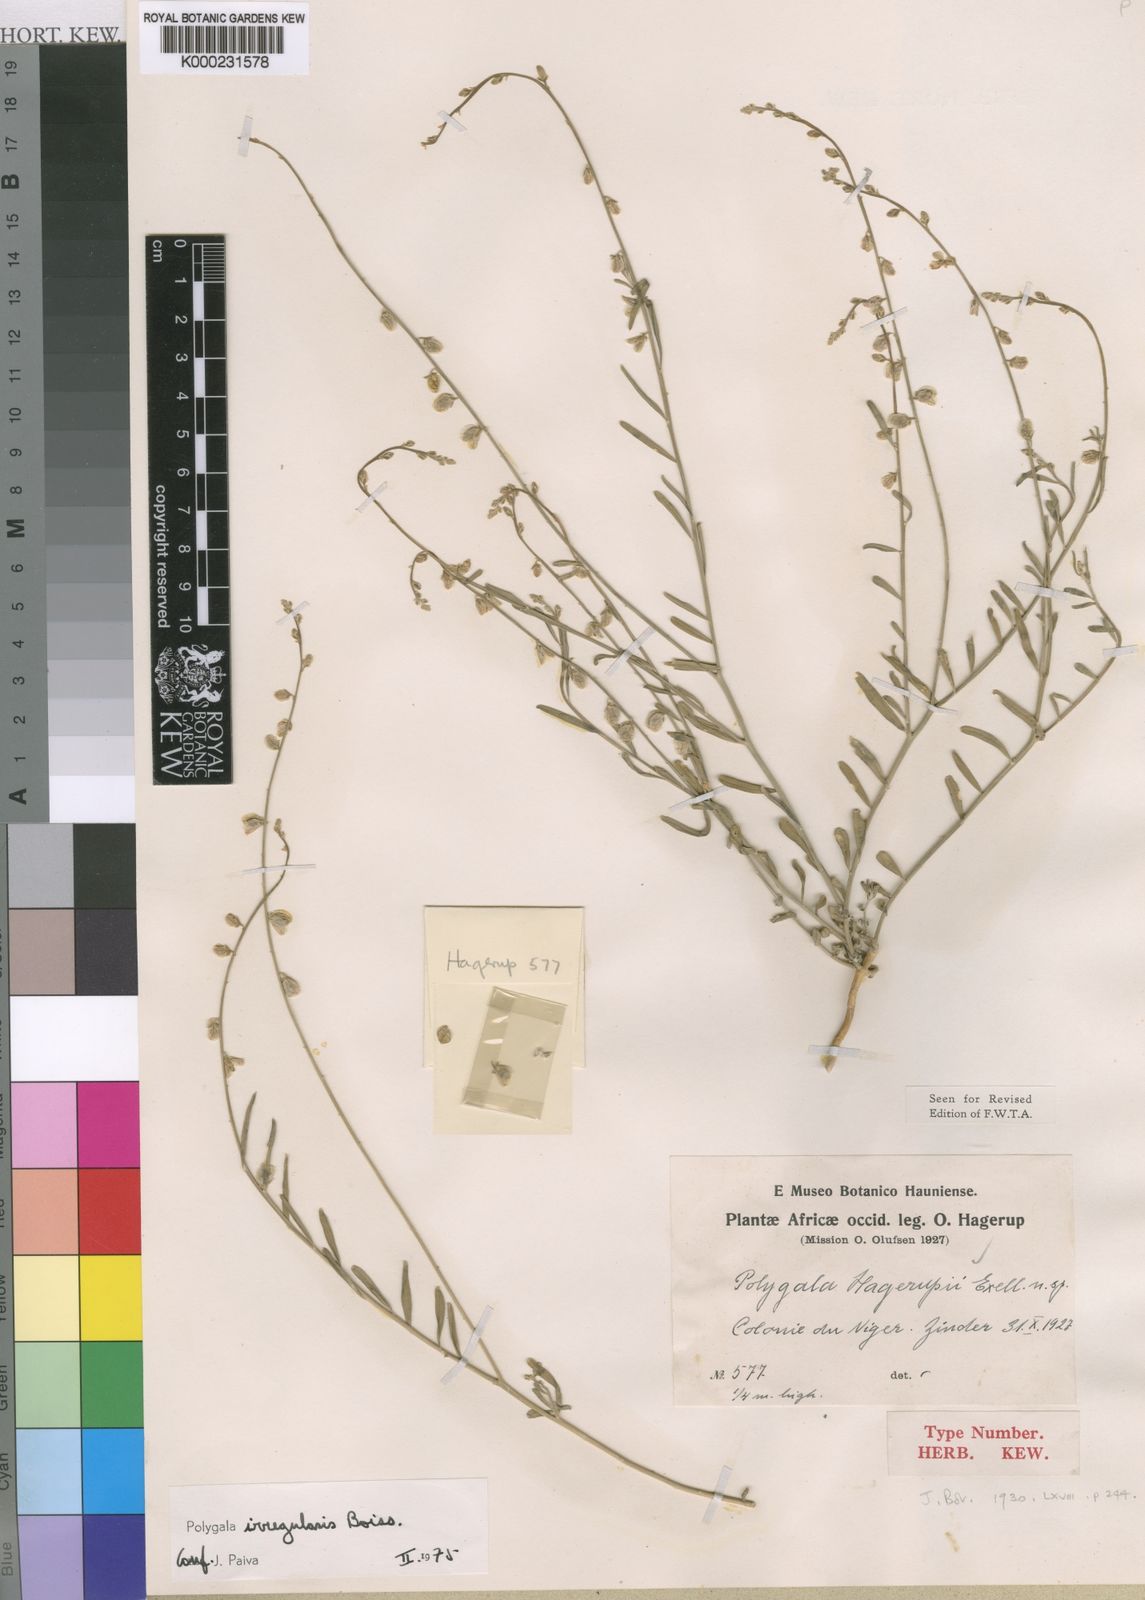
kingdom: Plantae
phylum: Tracheophyta
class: Magnoliopsida
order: Fabales
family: Polygalaceae
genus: Polygala
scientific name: Polygala irregularis
